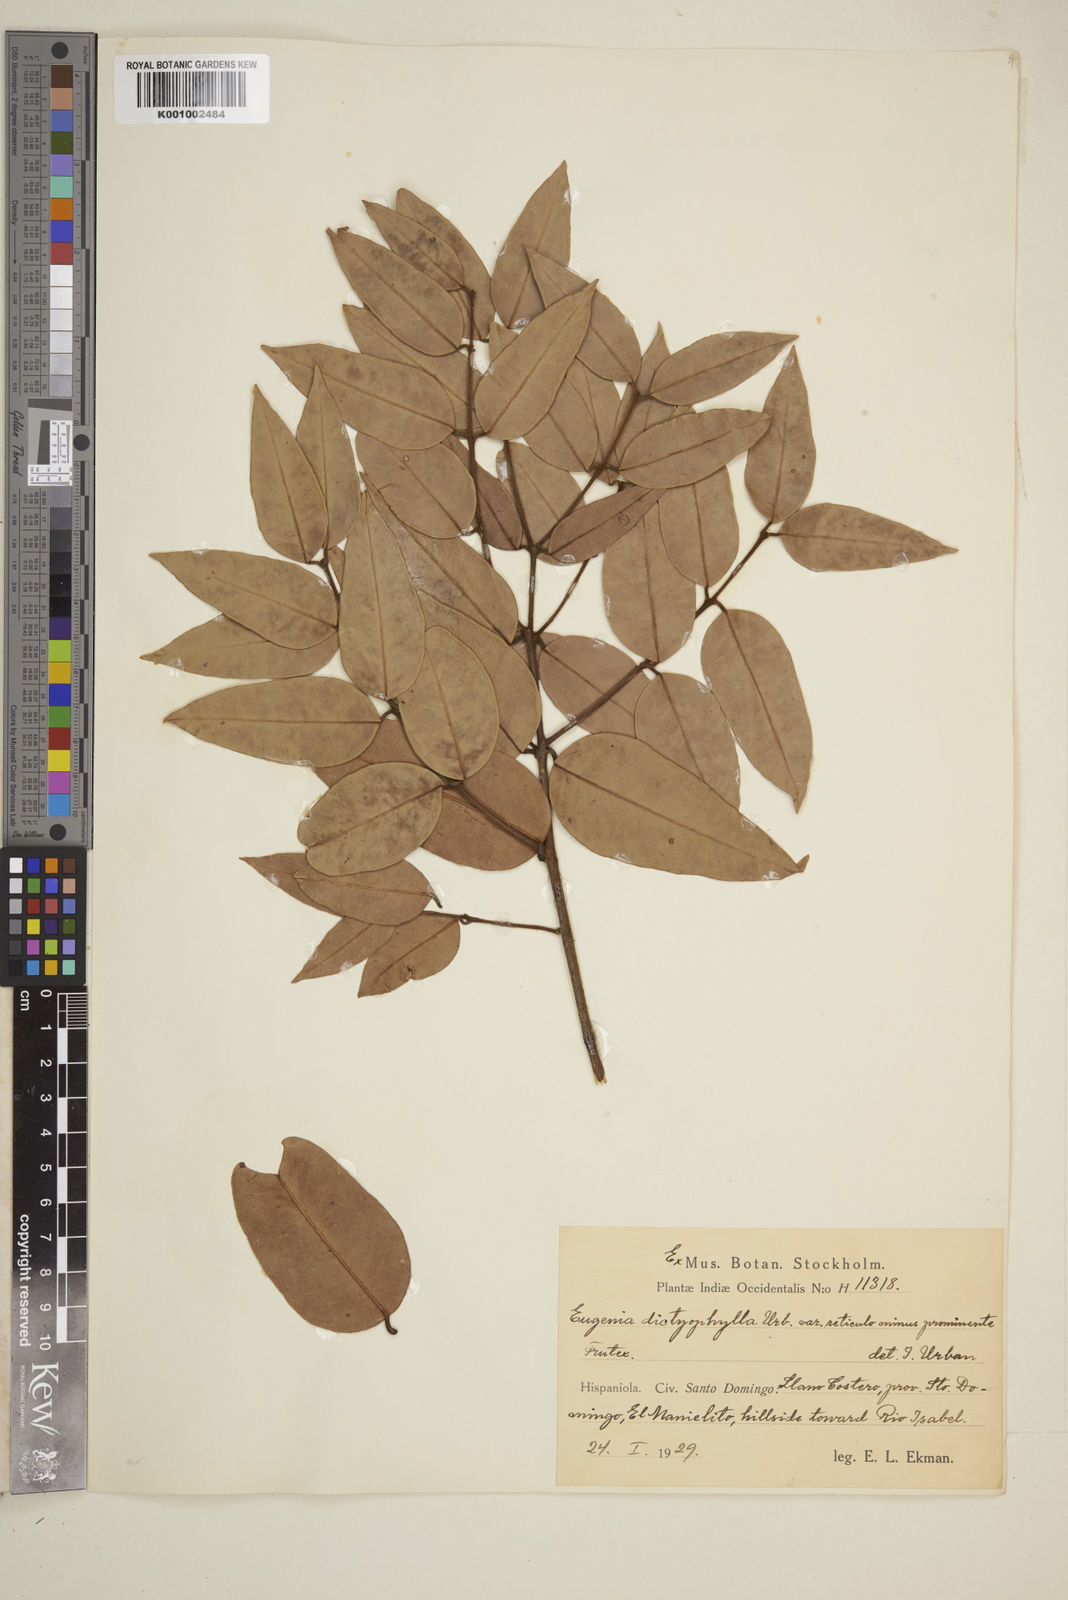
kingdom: Plantae
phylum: Tracheophyta
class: Magnoliopsida
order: Myrtales
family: Myrtaceae
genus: Eugenia
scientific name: Eugenia dictyophylla
